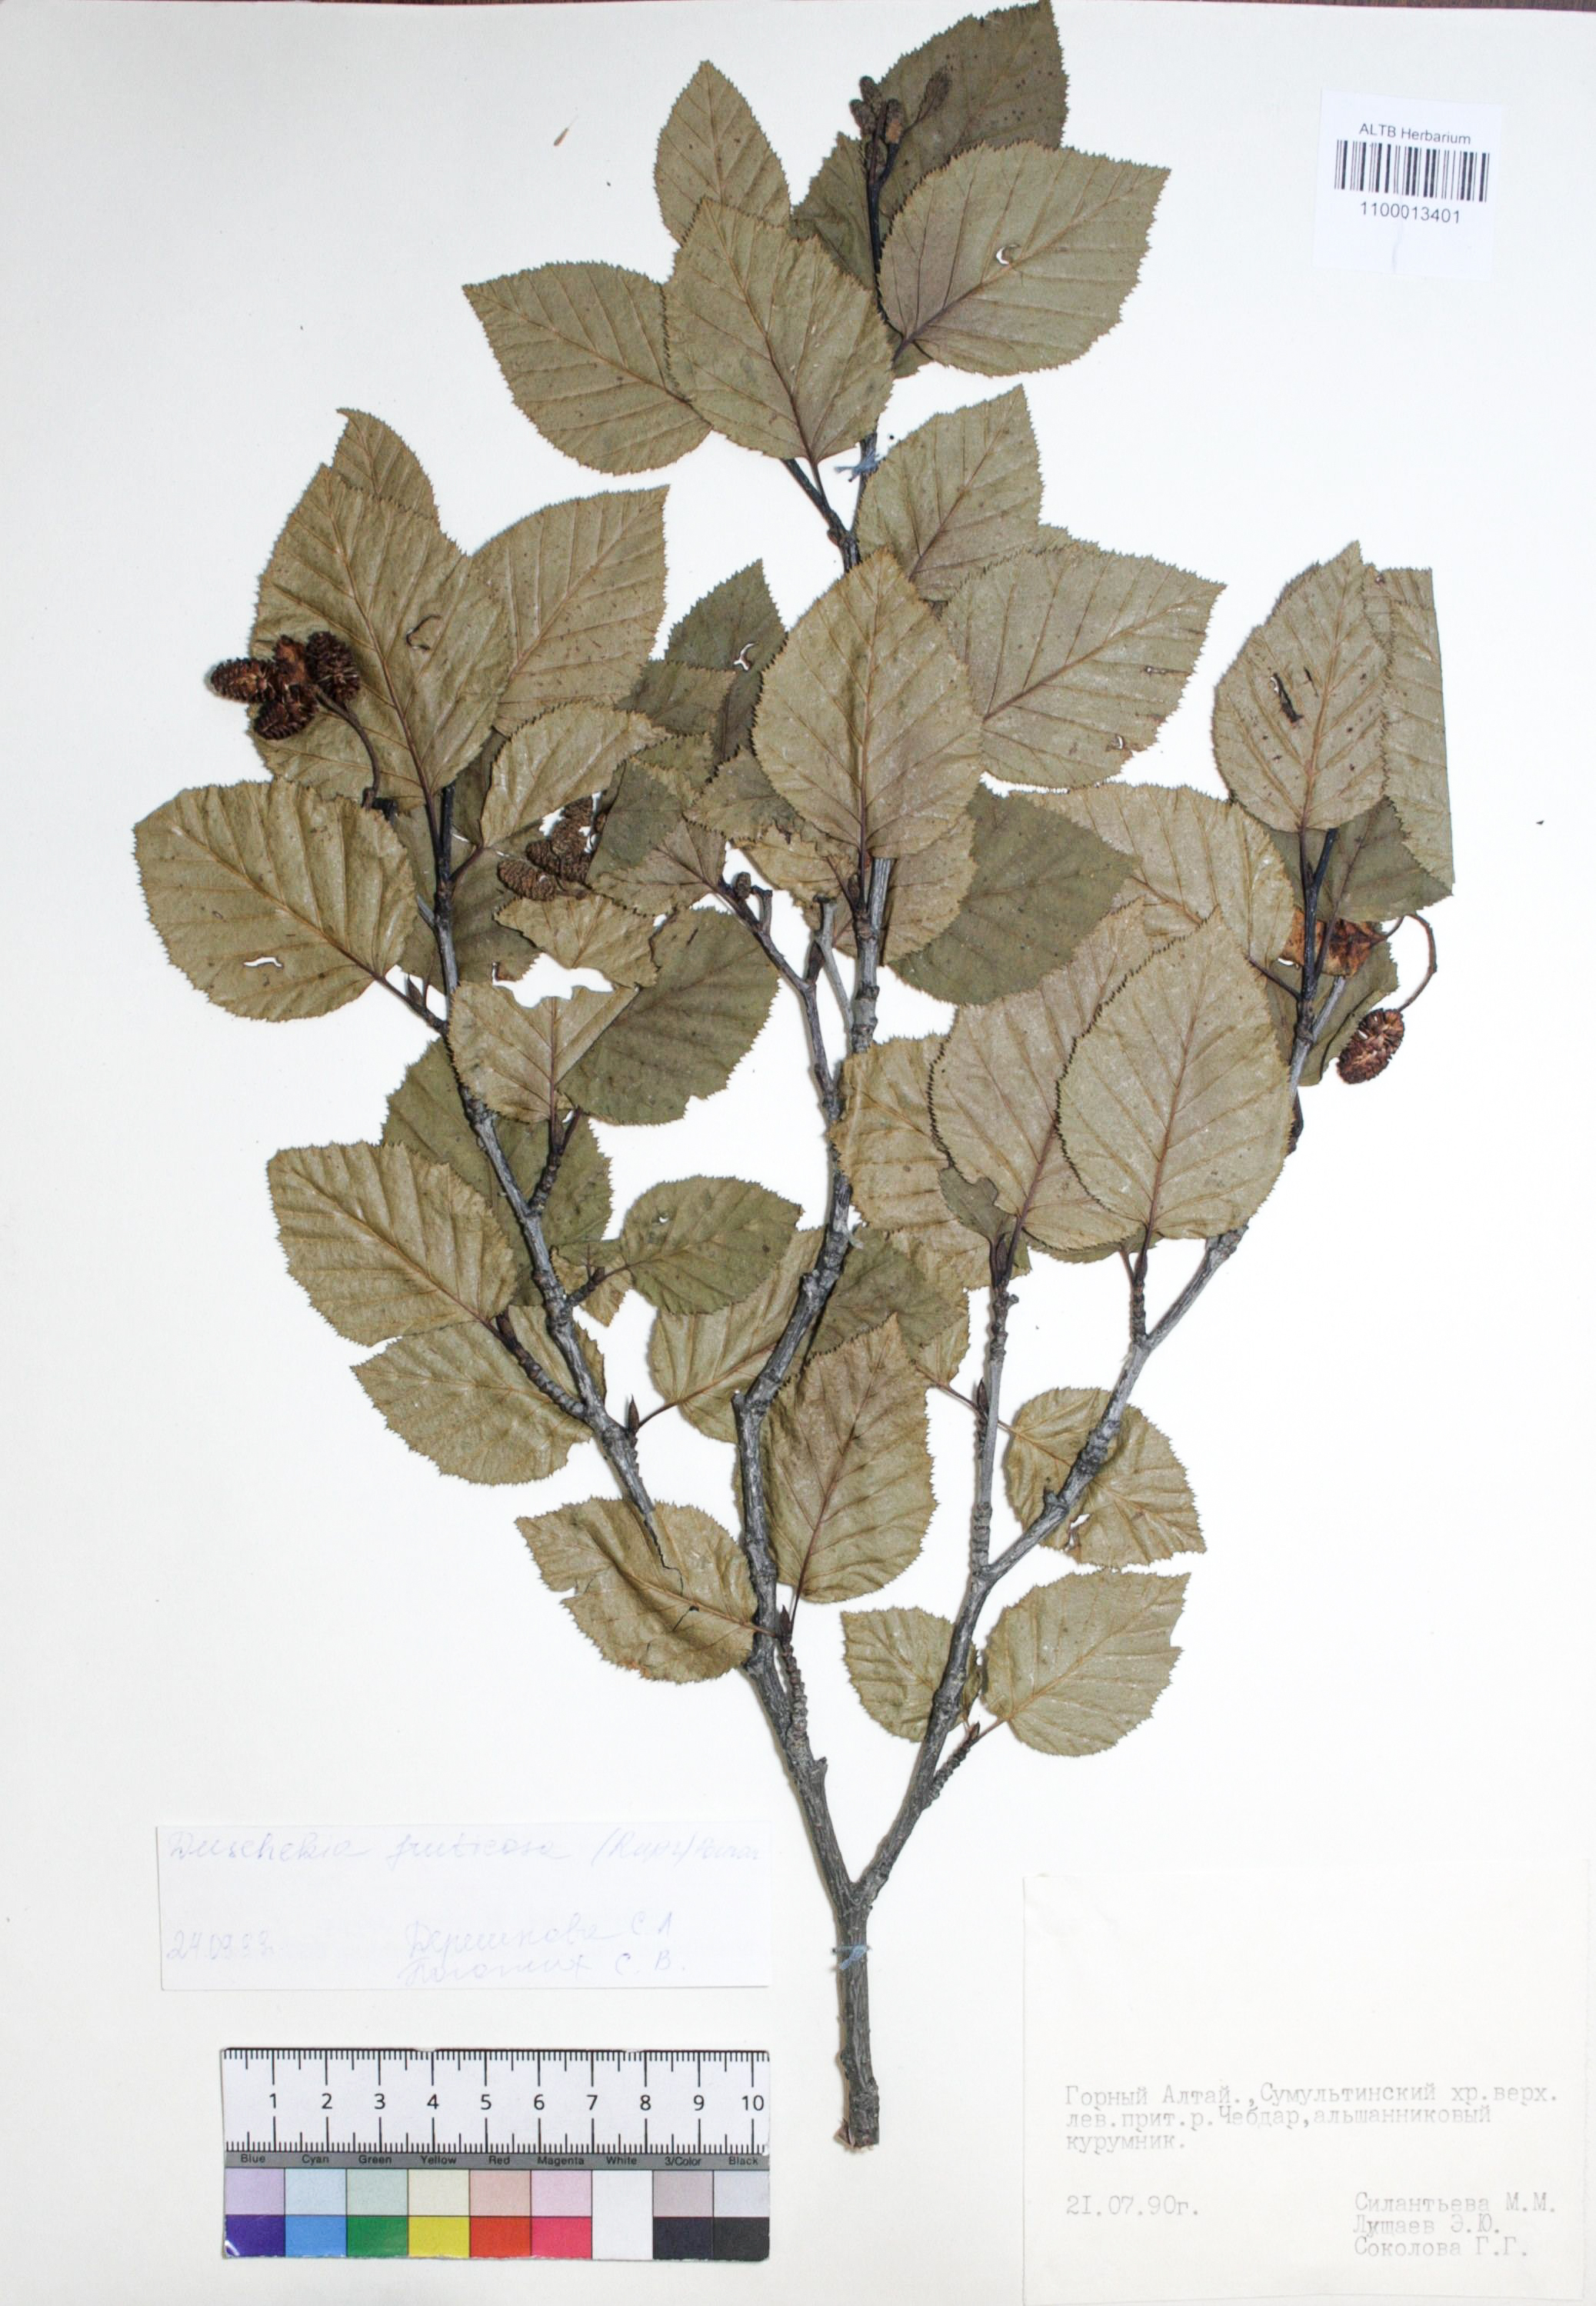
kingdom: Plantae
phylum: Tracheophyta
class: Magnoliopsida
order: Fagales
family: Betulaceae
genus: Alnus
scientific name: Alnus alnobetula
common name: Green alder
